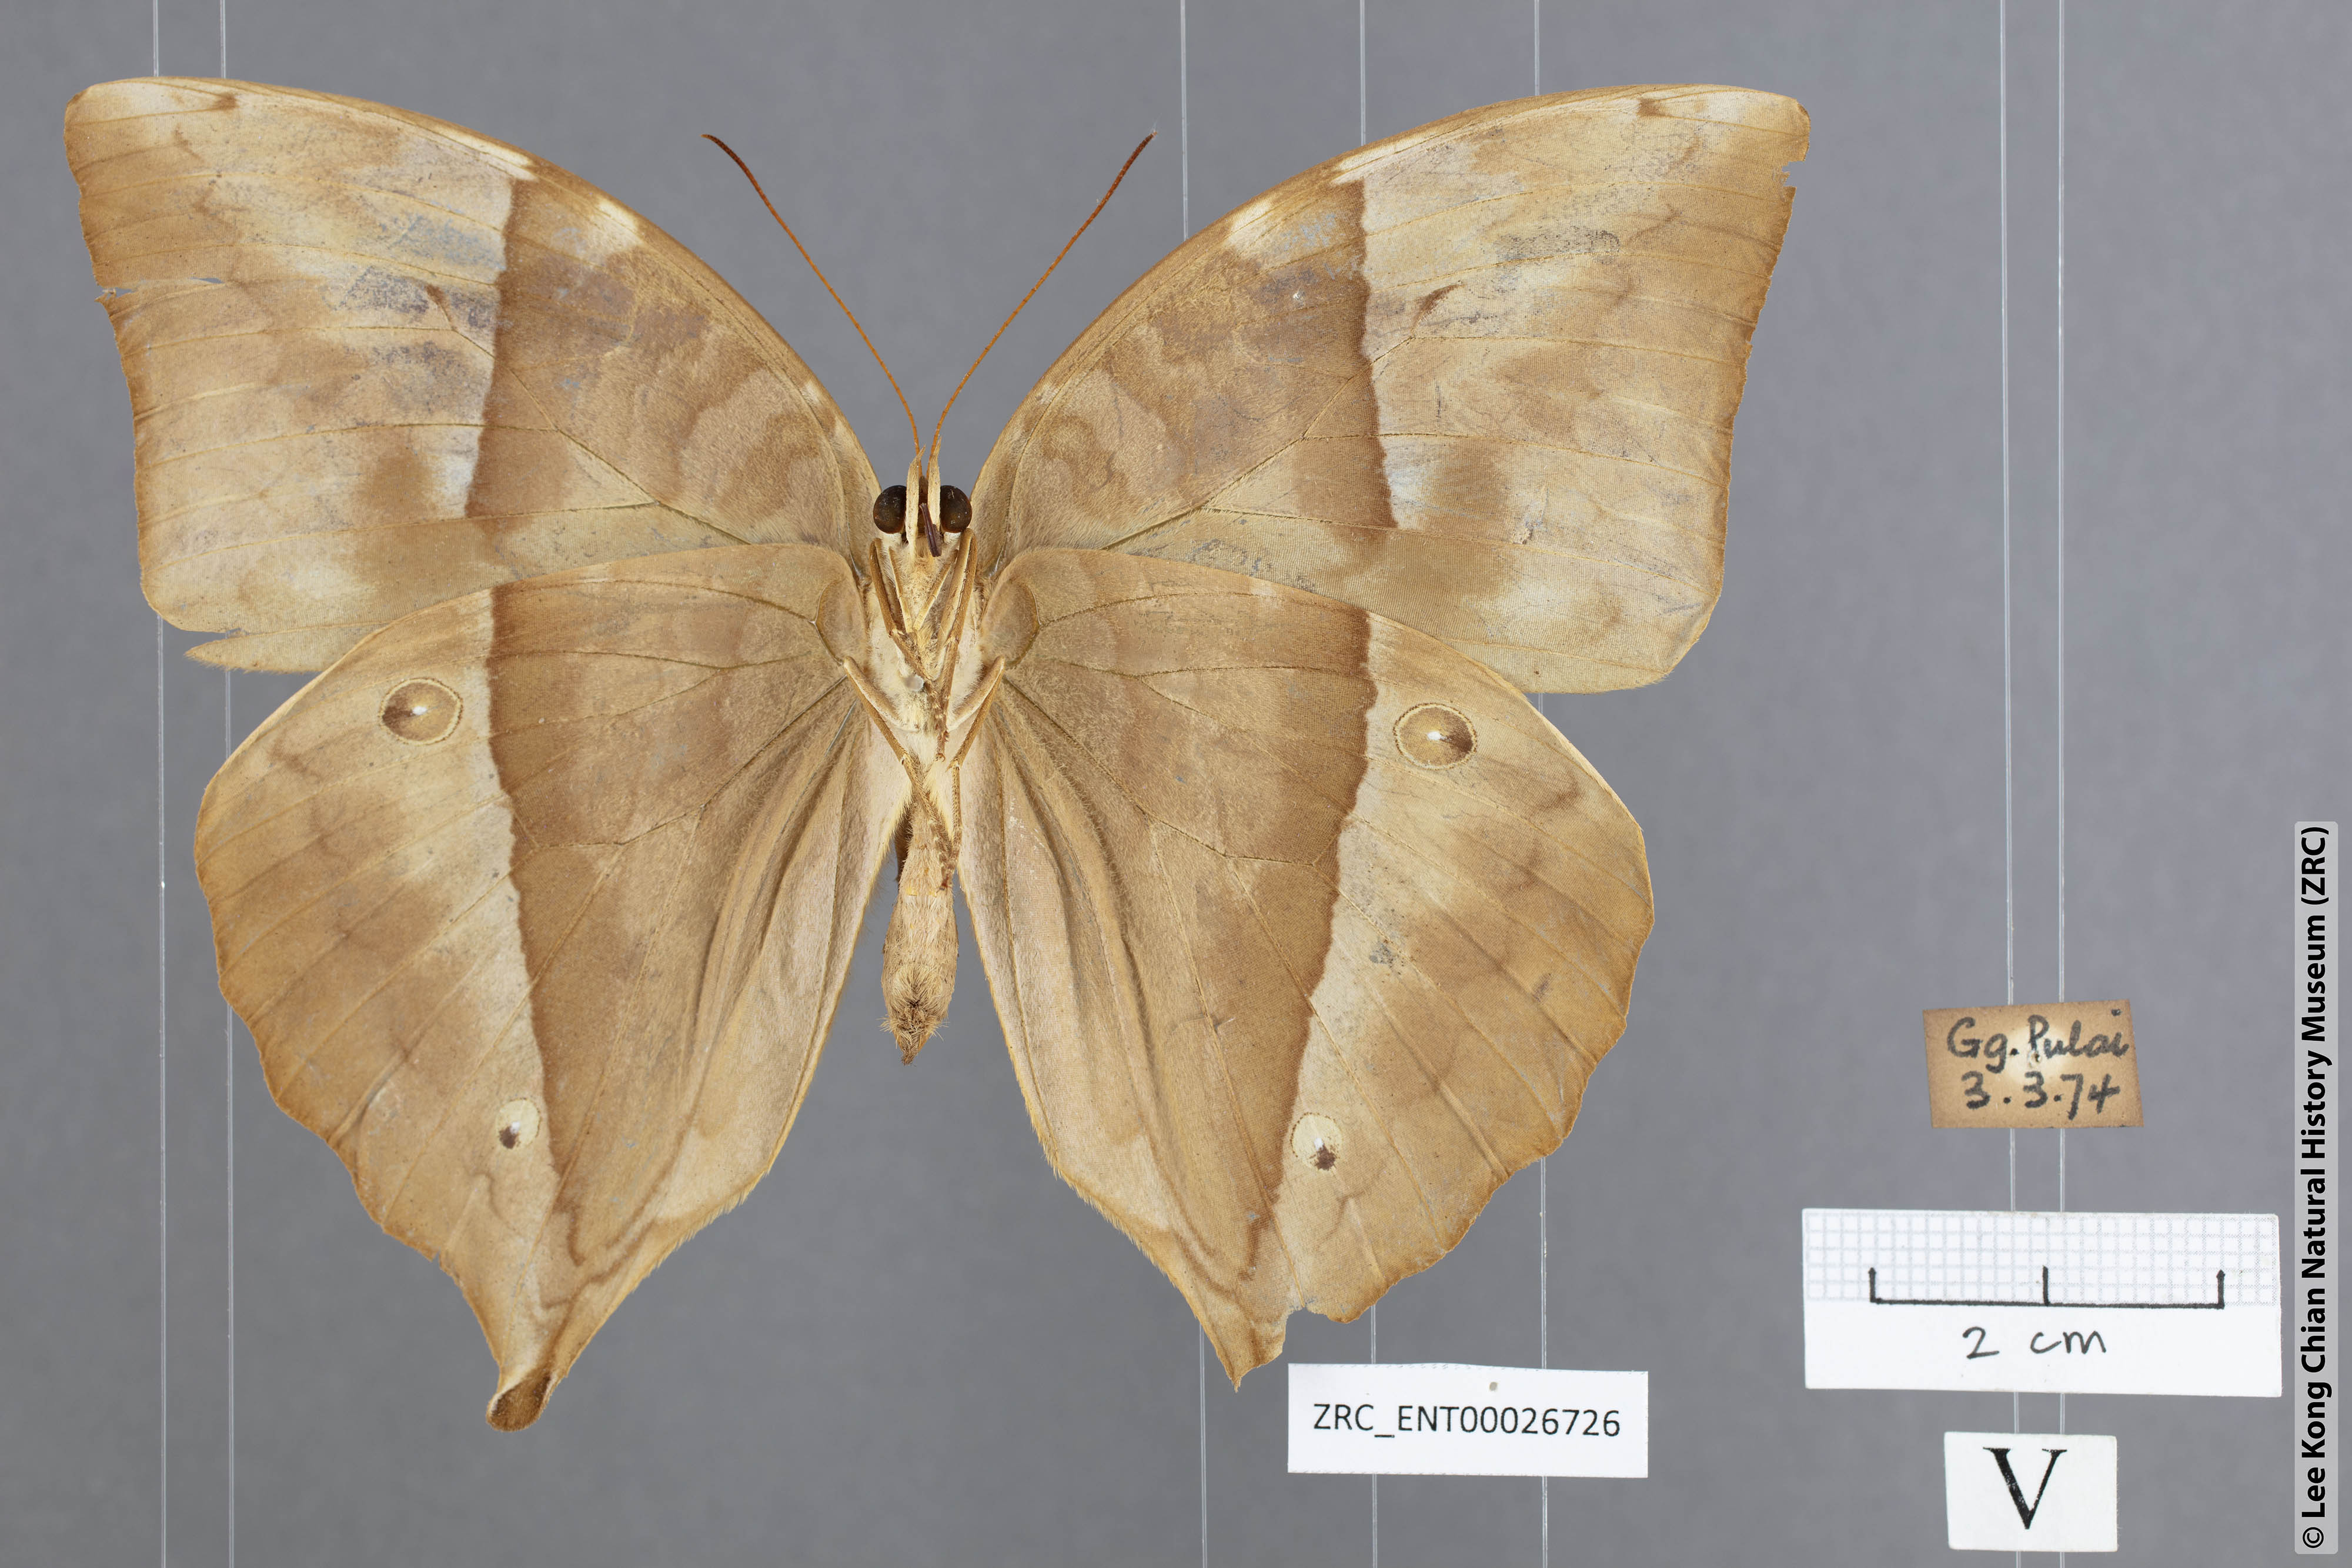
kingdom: Animalia
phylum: Arthropoda
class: Insecta
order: Lepidoptera
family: Nymphalidae
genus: Zeuxidia
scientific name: Zeuxidia doubledaii
